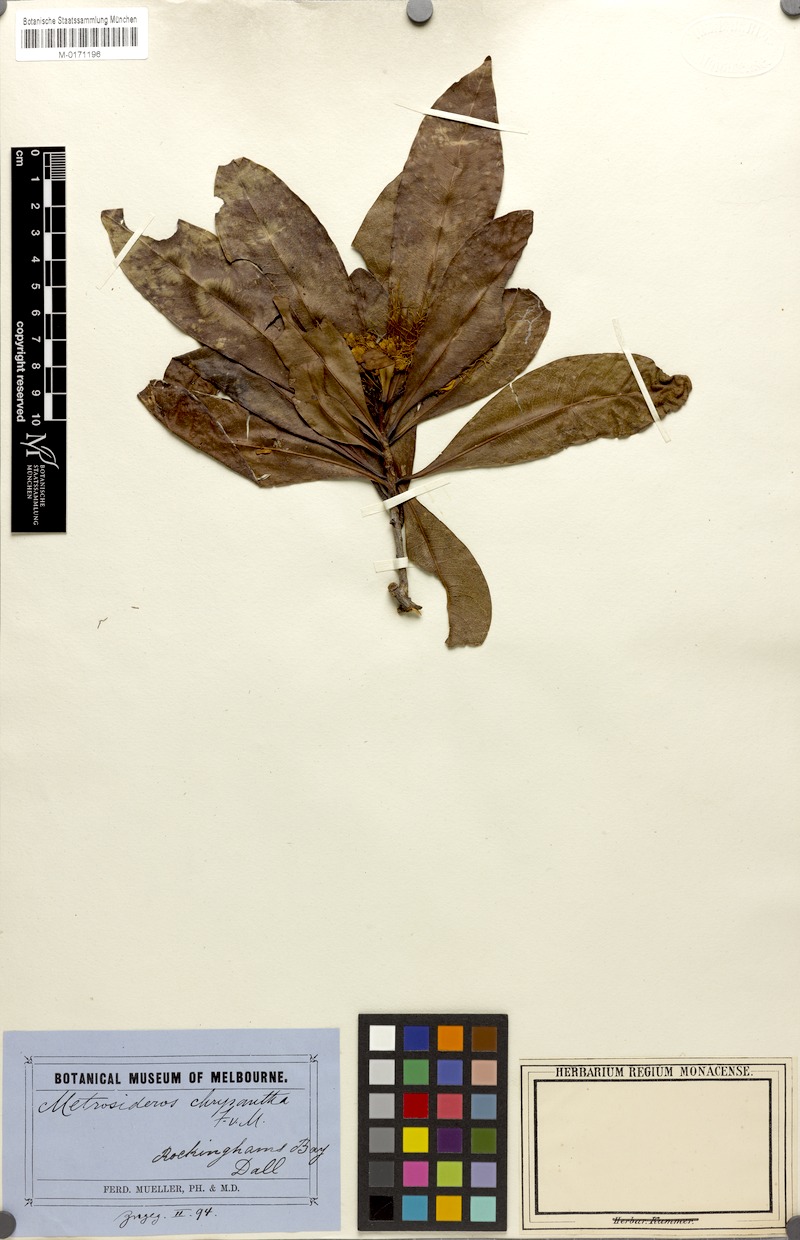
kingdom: Plantae
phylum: Tracheophyta
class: Magnoliopsida
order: Myrtales
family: Myrtaceae
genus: Xanthostemon
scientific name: Xanthostemon chrysanthus
